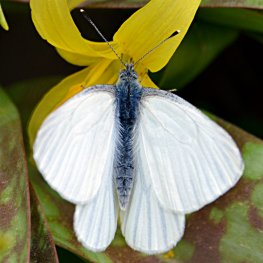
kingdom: Animalia
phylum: Arthropoda
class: Insecta
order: Lepidoptera
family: Pieridae
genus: Pieris
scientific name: Pieris oleracea
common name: Mustard White
